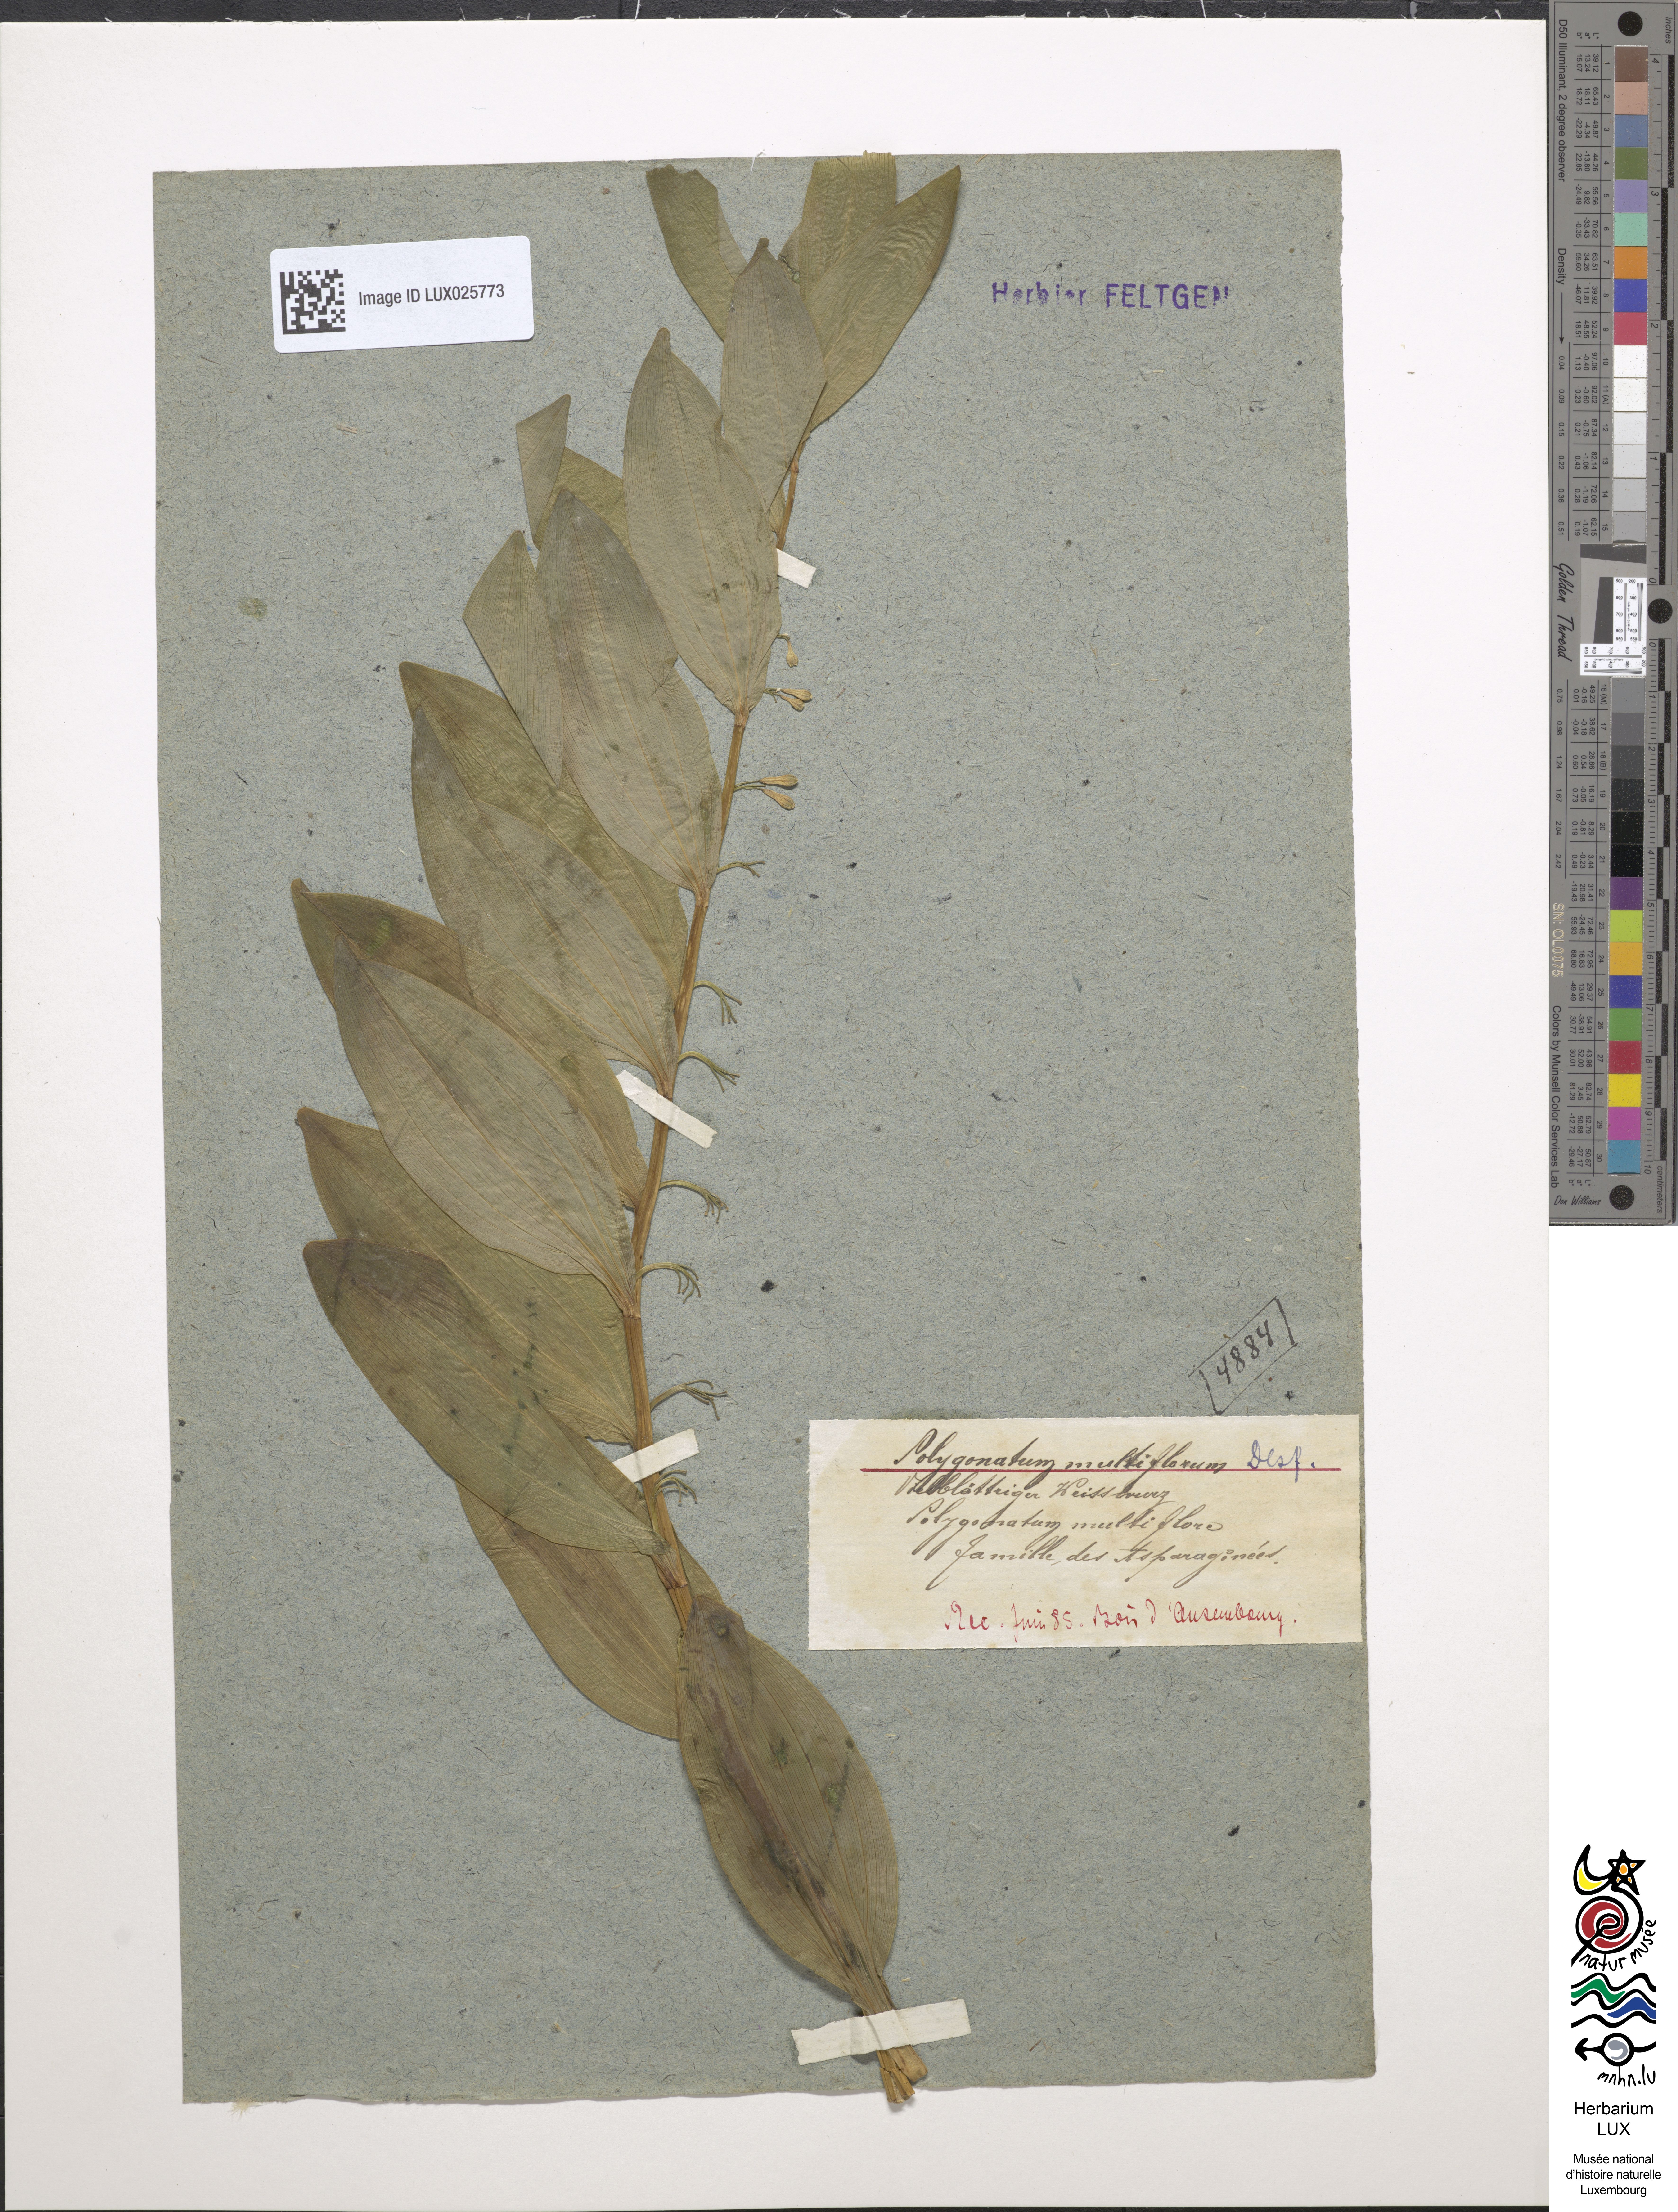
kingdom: Plantae
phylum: Tracheophyta
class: Liliopsida
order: Asparagales
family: Asparagaceae
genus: Polygonatum
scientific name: Polygonatum multiflorum
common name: Solomon's-seal
